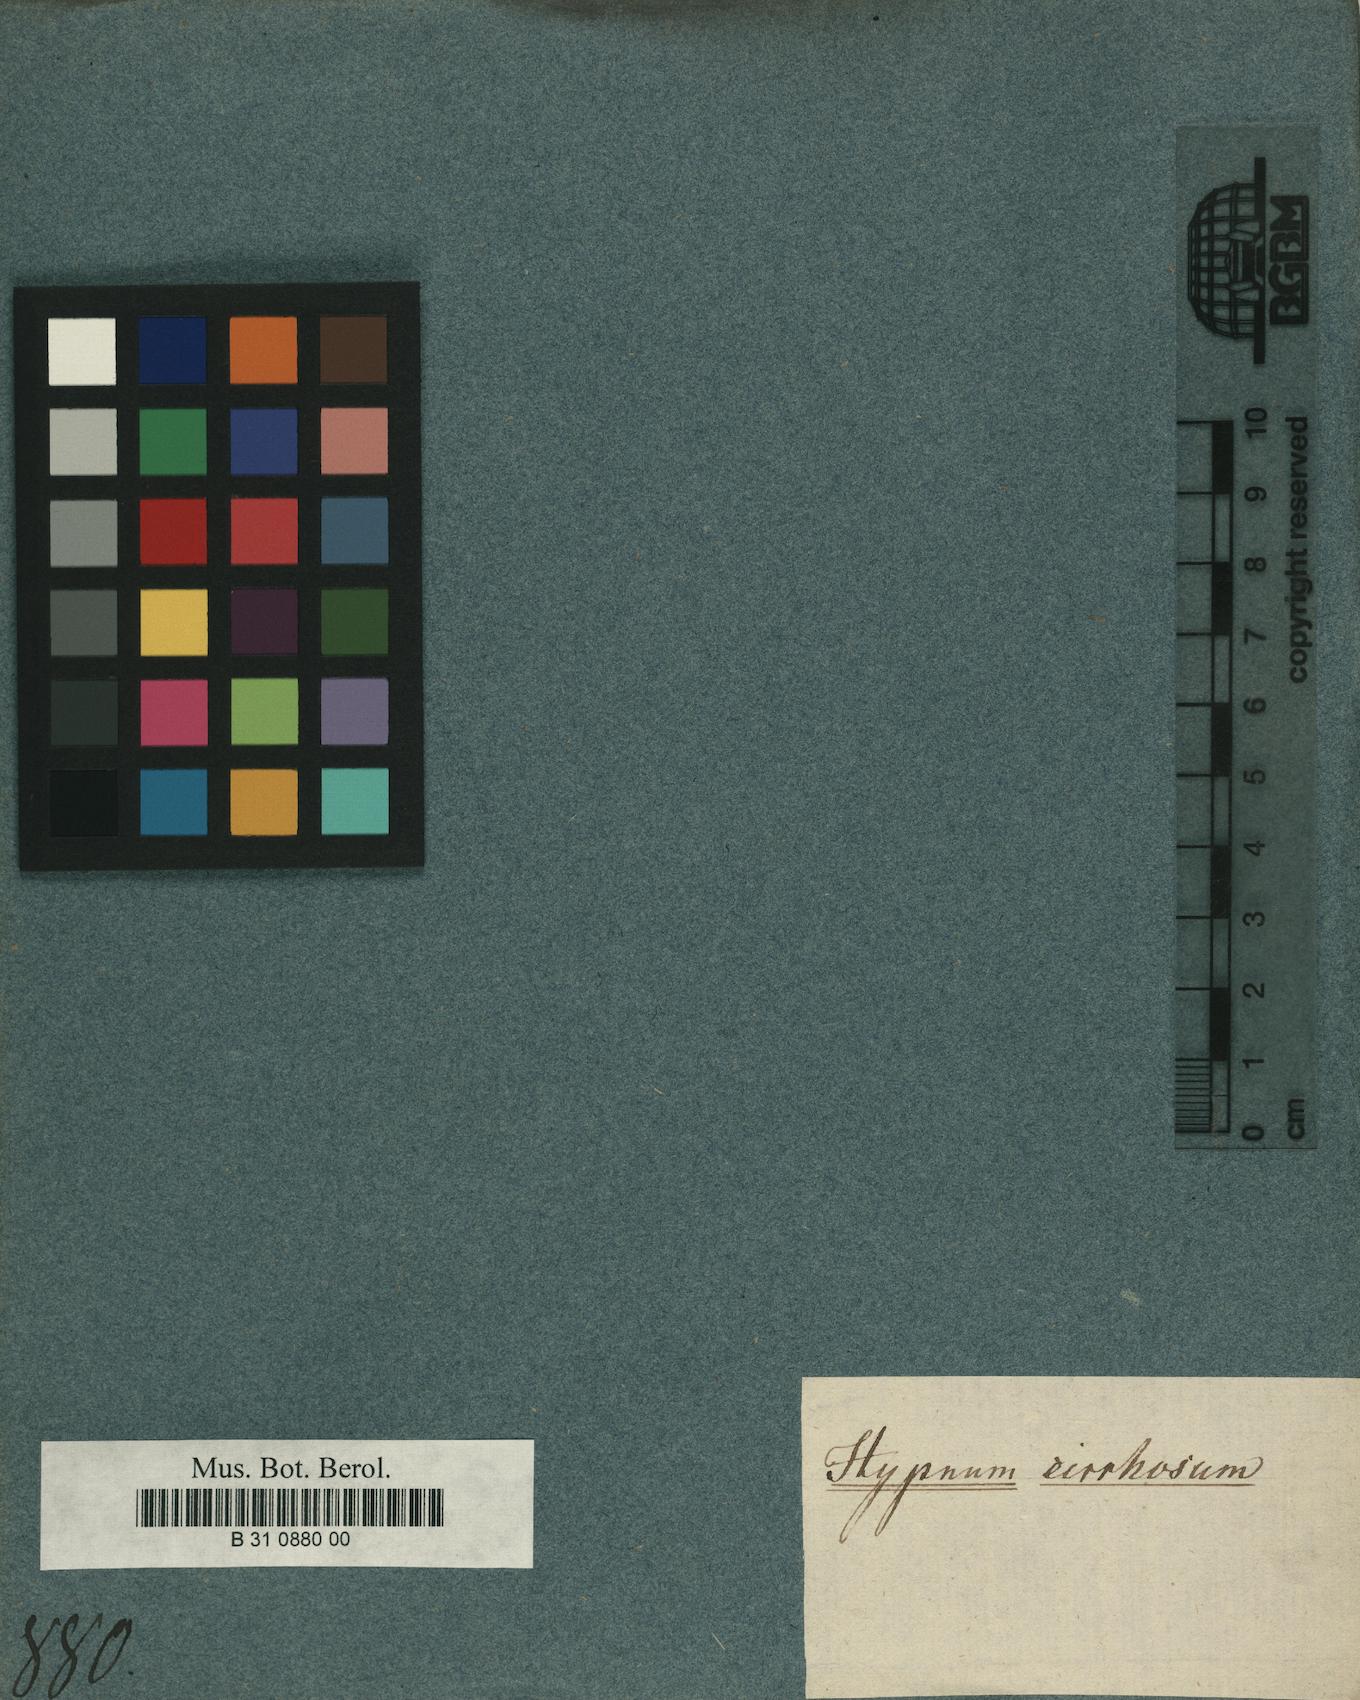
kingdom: Plantae
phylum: Bryophyta
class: Bryopsida
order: Hypnales
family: Hypnaceae
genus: Hypnum
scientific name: Hypnum
